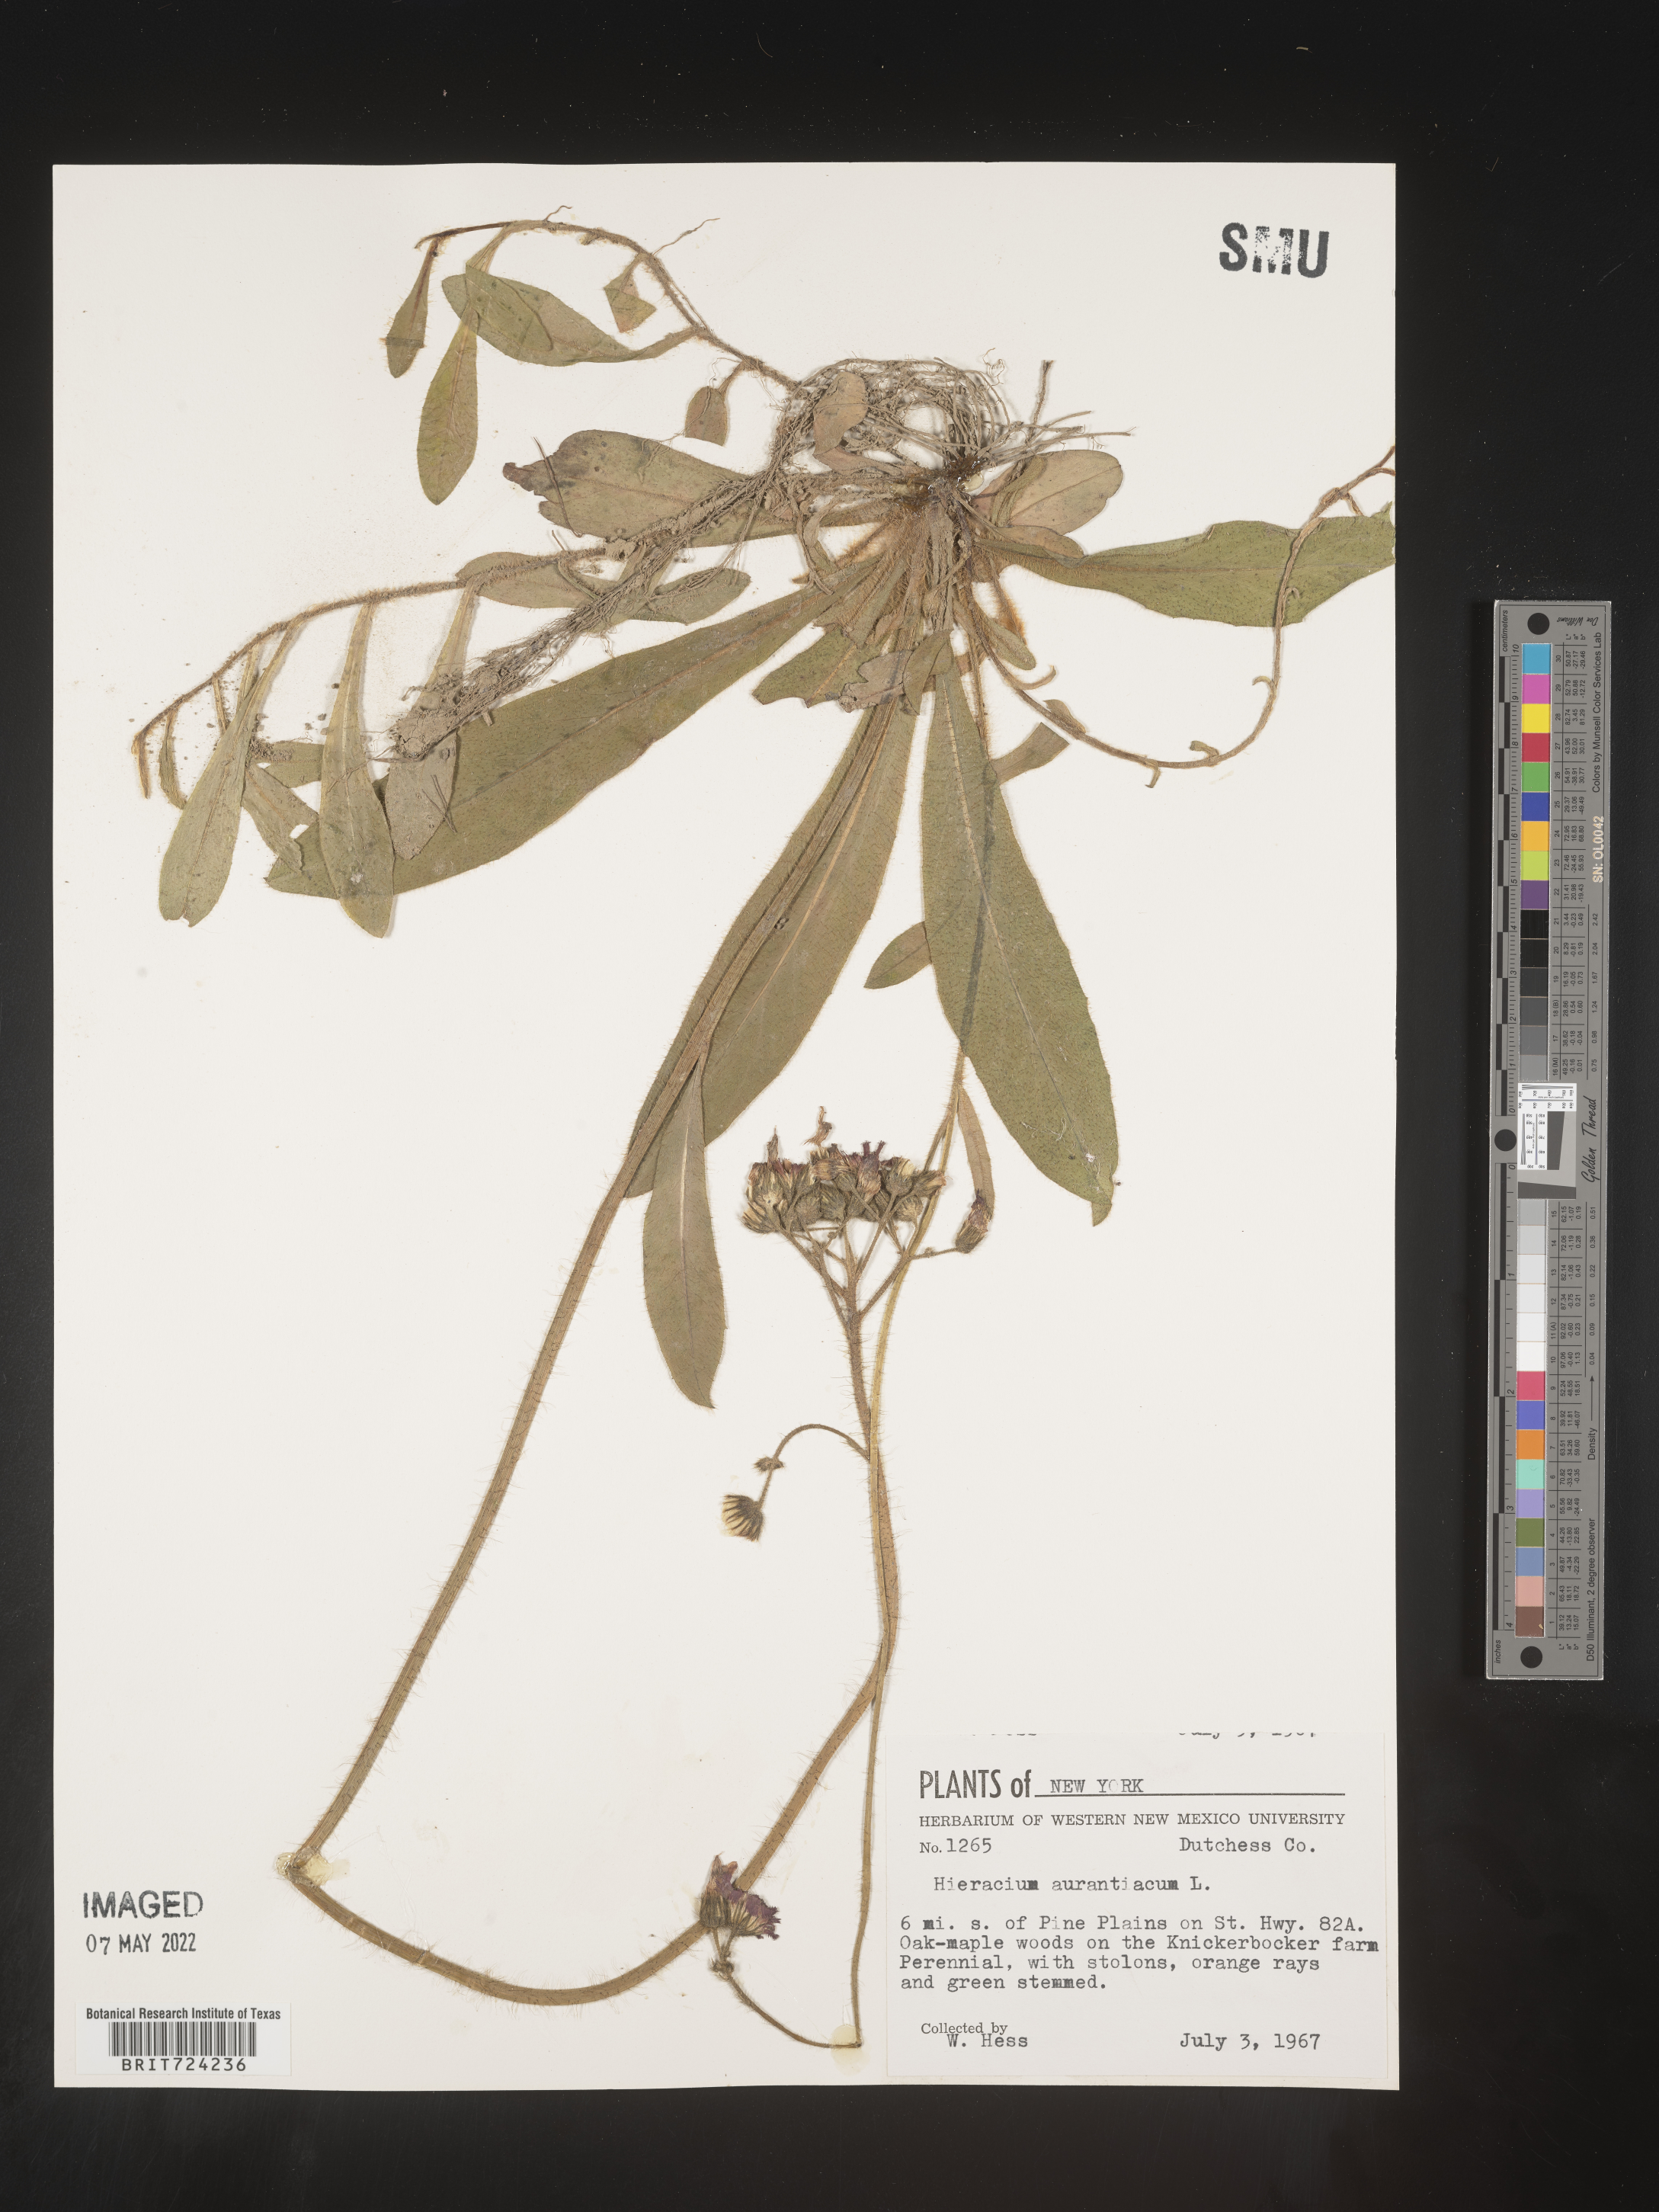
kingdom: Plantae
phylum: Tracheophyta
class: Magnoliopsida
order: Asterales
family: Asteraceae
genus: Pilosella
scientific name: Pilosella aurantiaca
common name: Fox-and-cubs
